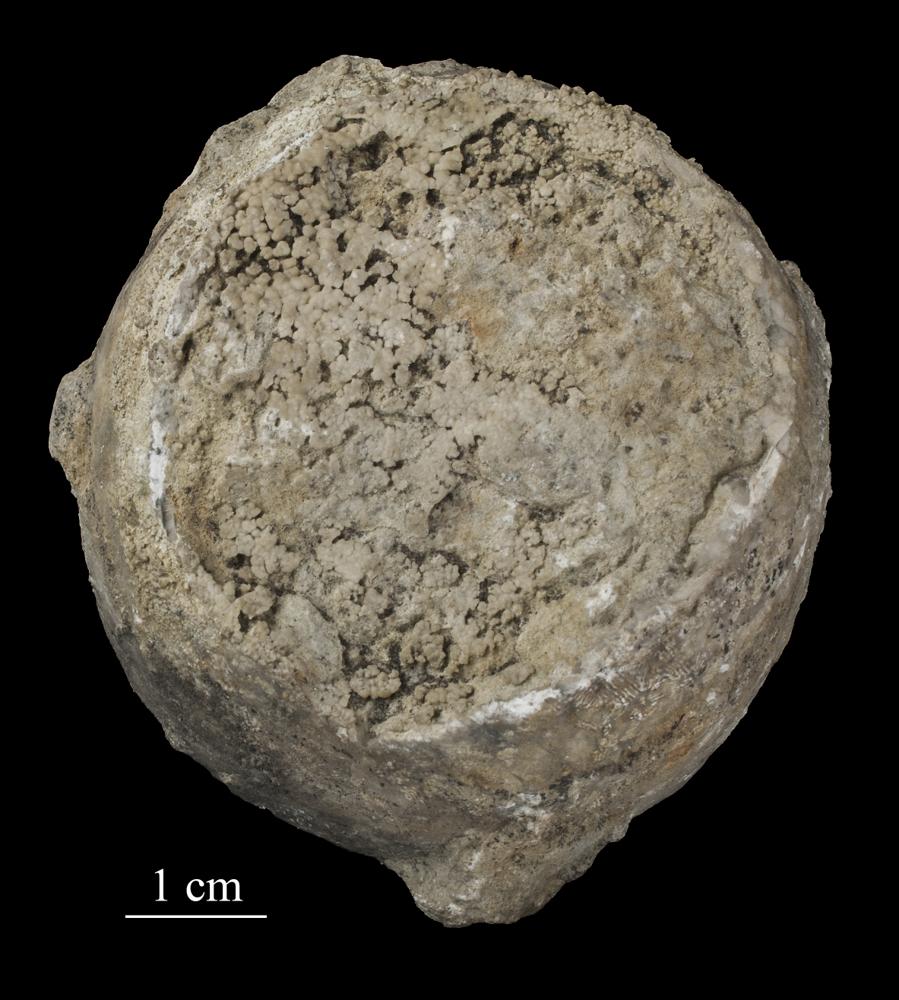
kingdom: Animalia
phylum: Echinodermata
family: Echinosphaeritidae
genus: Echinosphaerites
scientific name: Echinosphaerites Echinus aurantium
